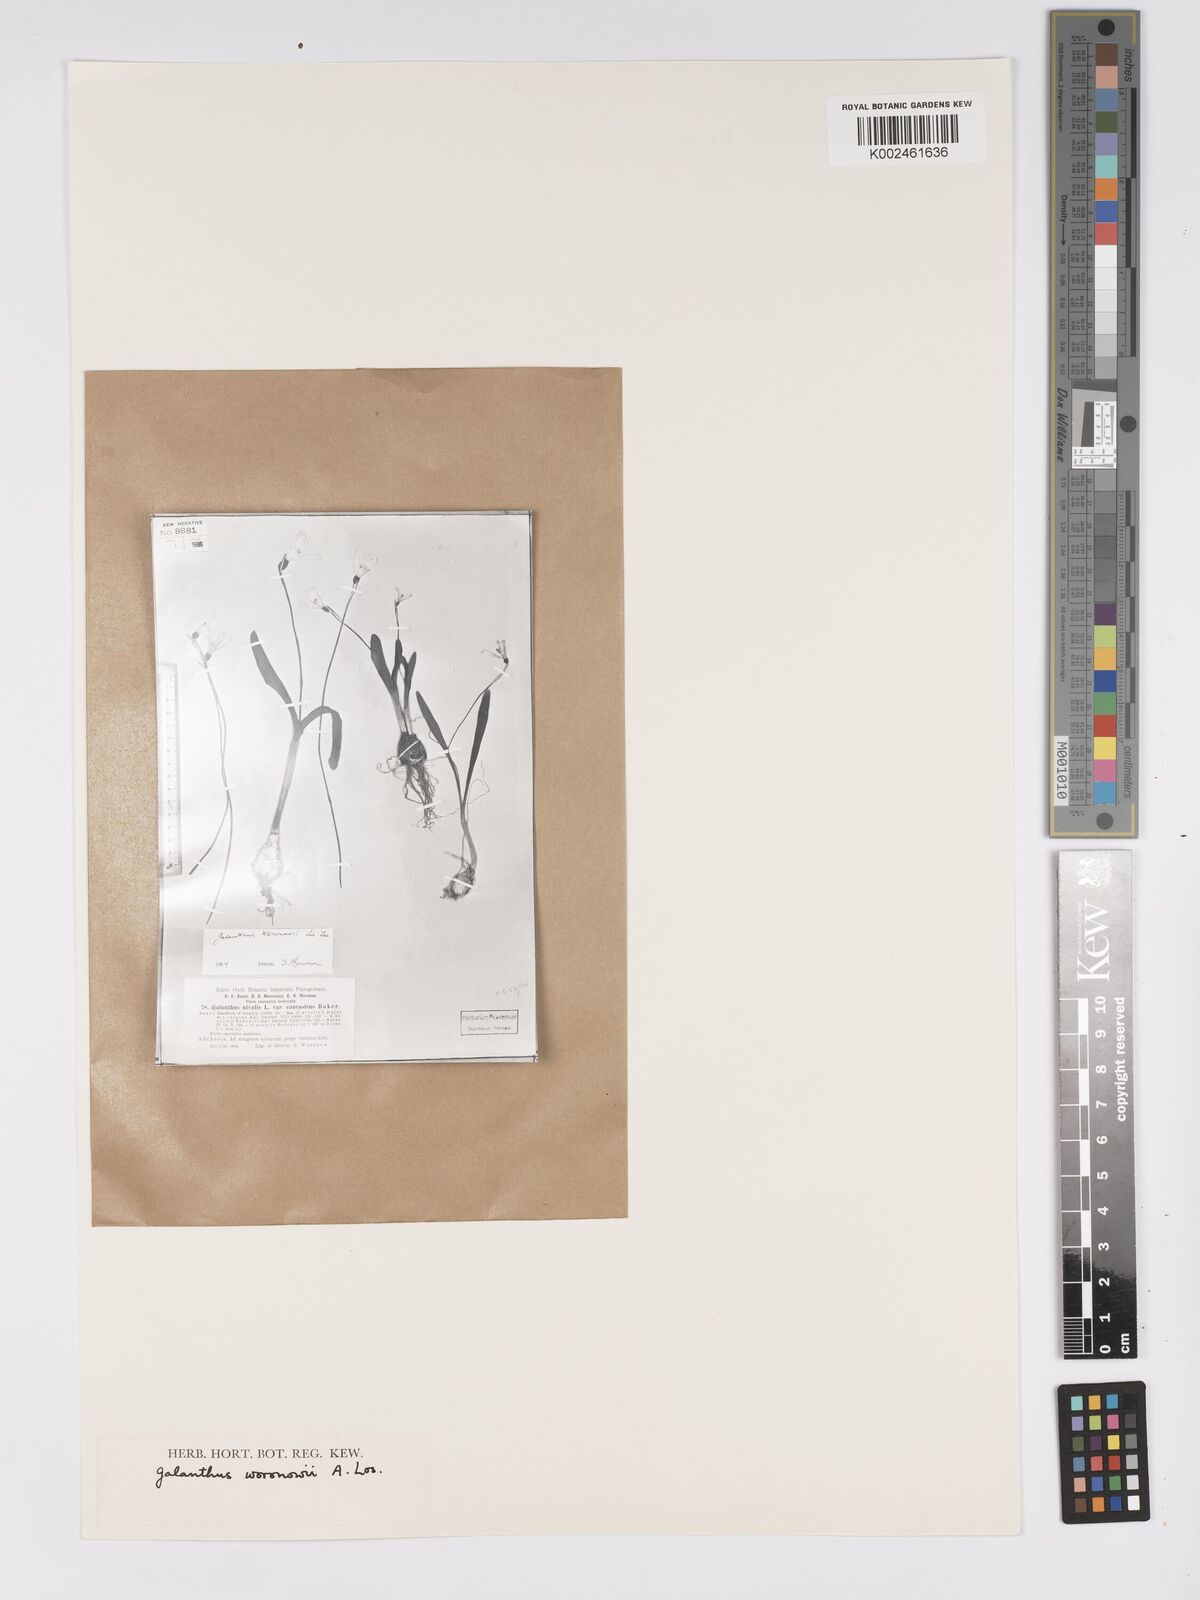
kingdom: Plantae
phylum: Tracheophyta
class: Liliopsida
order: Asparagales
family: Amaryllidaceae
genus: Galanthus
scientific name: Galanthus woronowii
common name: Green snowdrop
